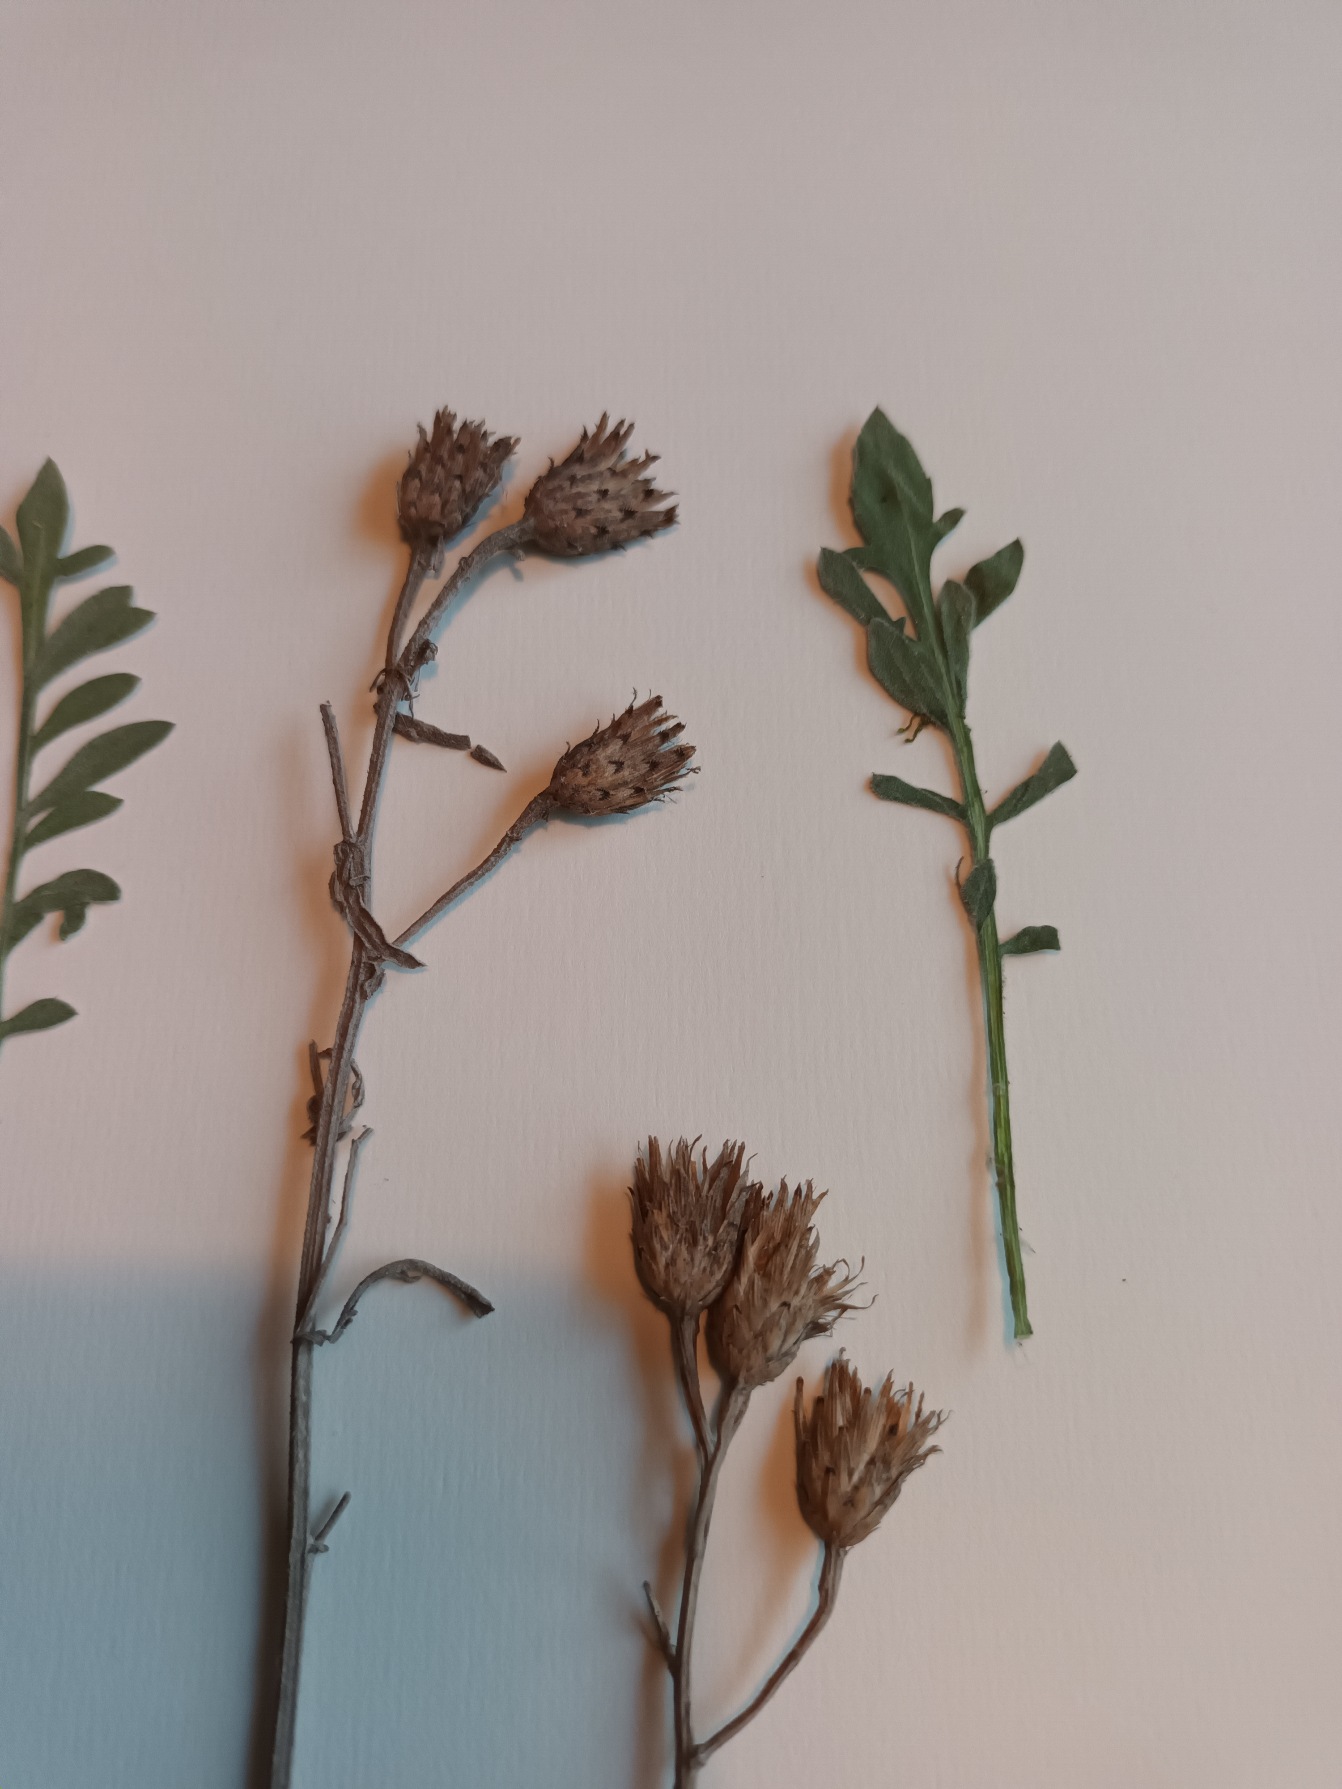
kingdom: Plantae
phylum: Tracheophyta
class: Magnoliopsida
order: Asterales
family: Asteraceae
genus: Centaurea
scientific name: Centaurea stoebe
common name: Småhovedet knopurt
